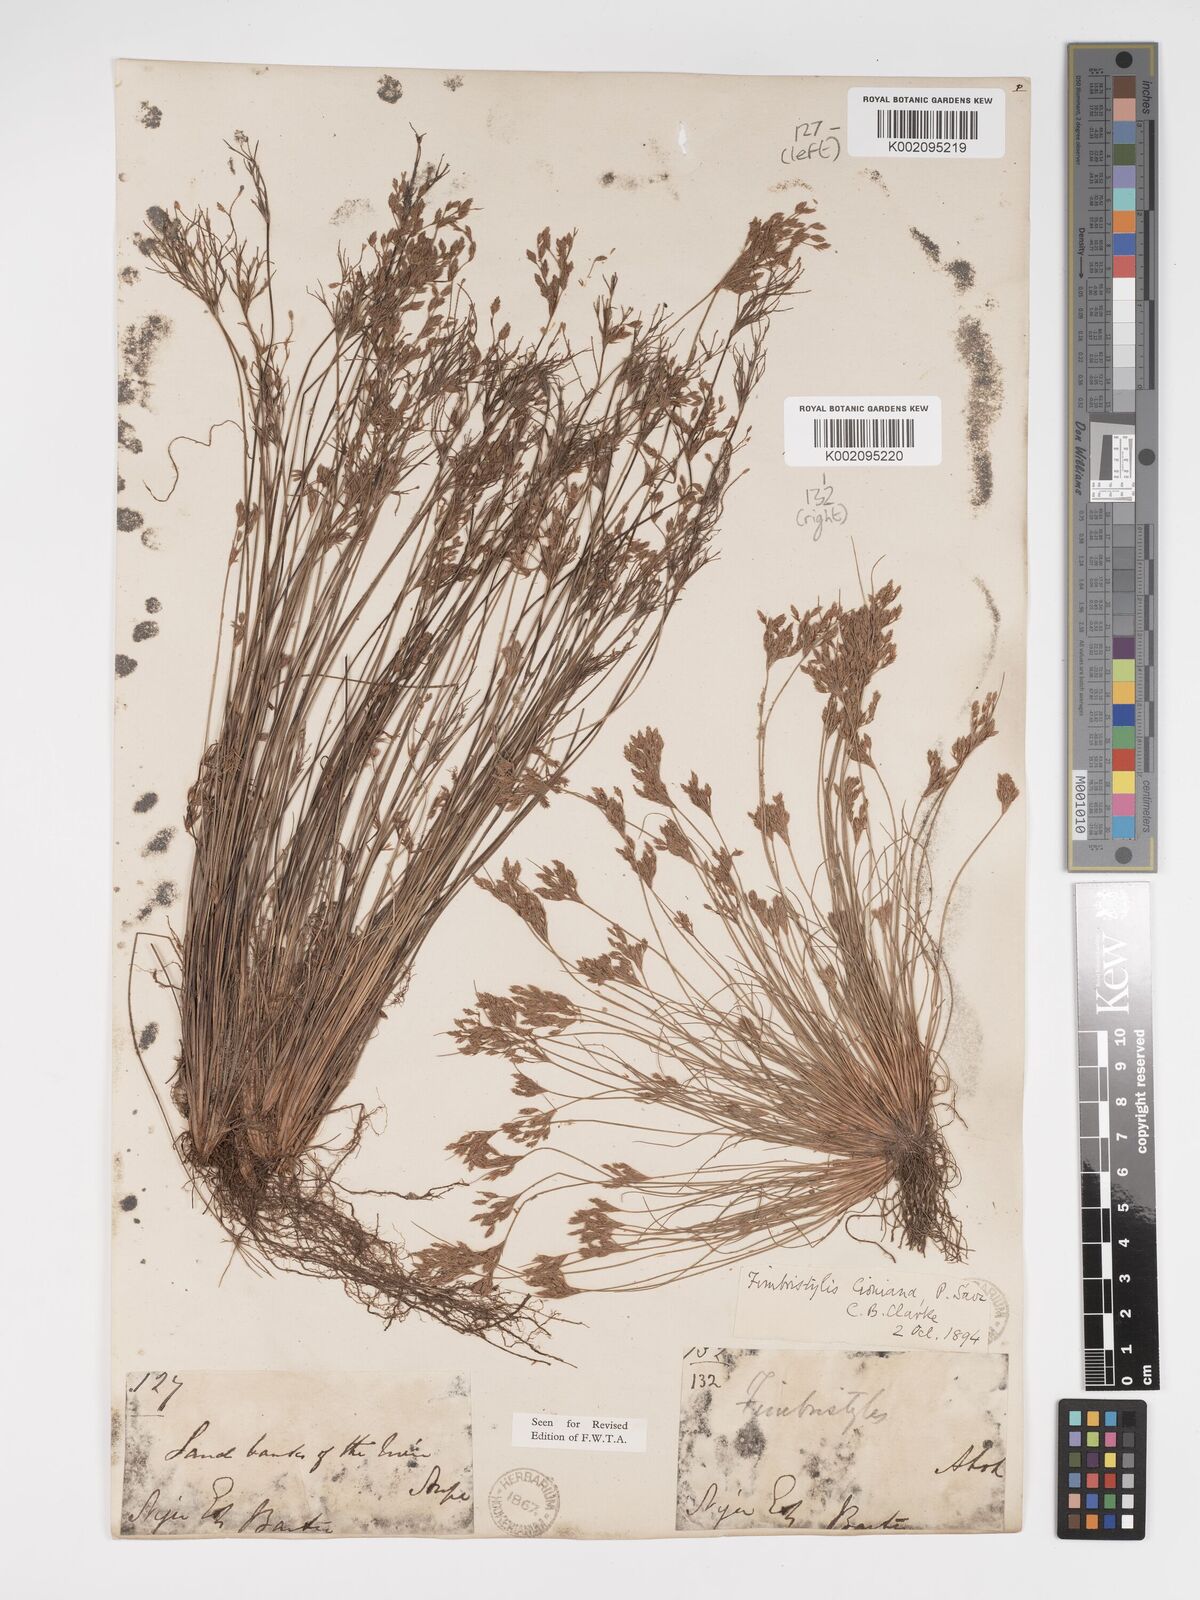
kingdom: Plantae
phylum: Tracheophyta
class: Liliopsida
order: Poales
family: Cyperaceae
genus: Bulbostylis
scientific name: Bulbostylis cioniana
